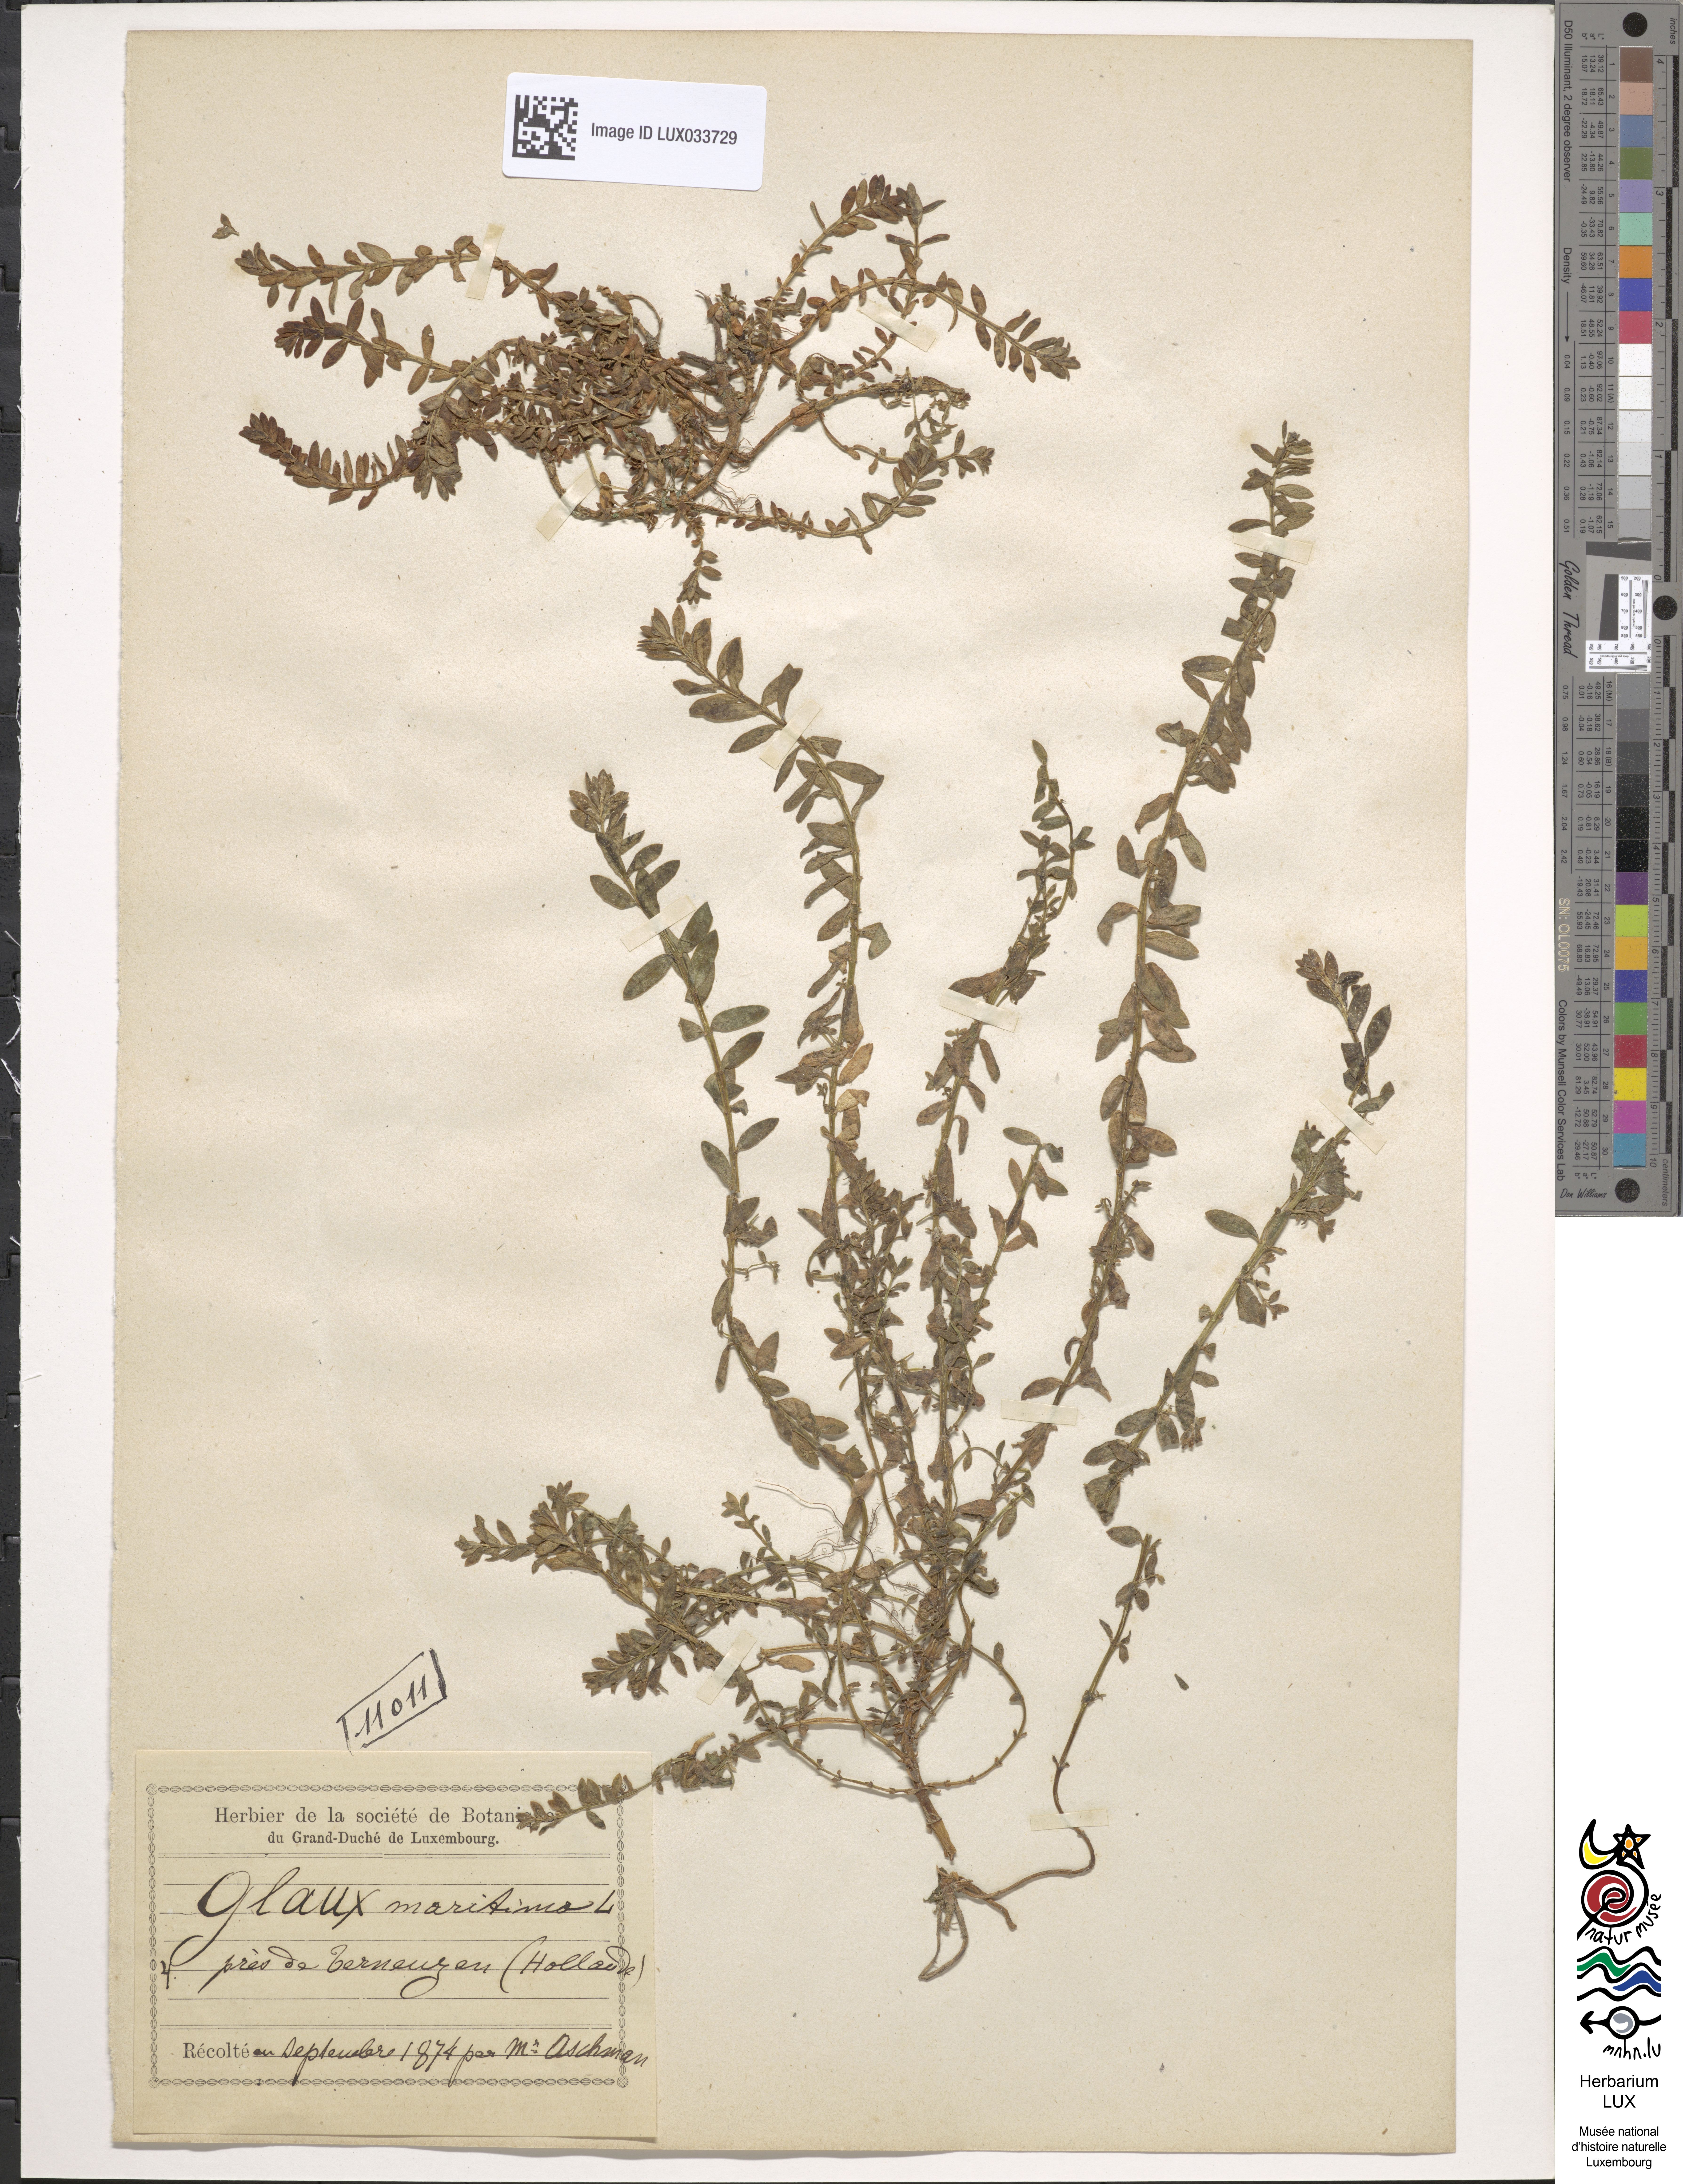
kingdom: Plantae
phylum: Tracheophyta
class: Magnoliopsida
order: Ericales
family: Primulaceae
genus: Lysimachia
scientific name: Lysimachia maritima
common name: Sea milkwort
